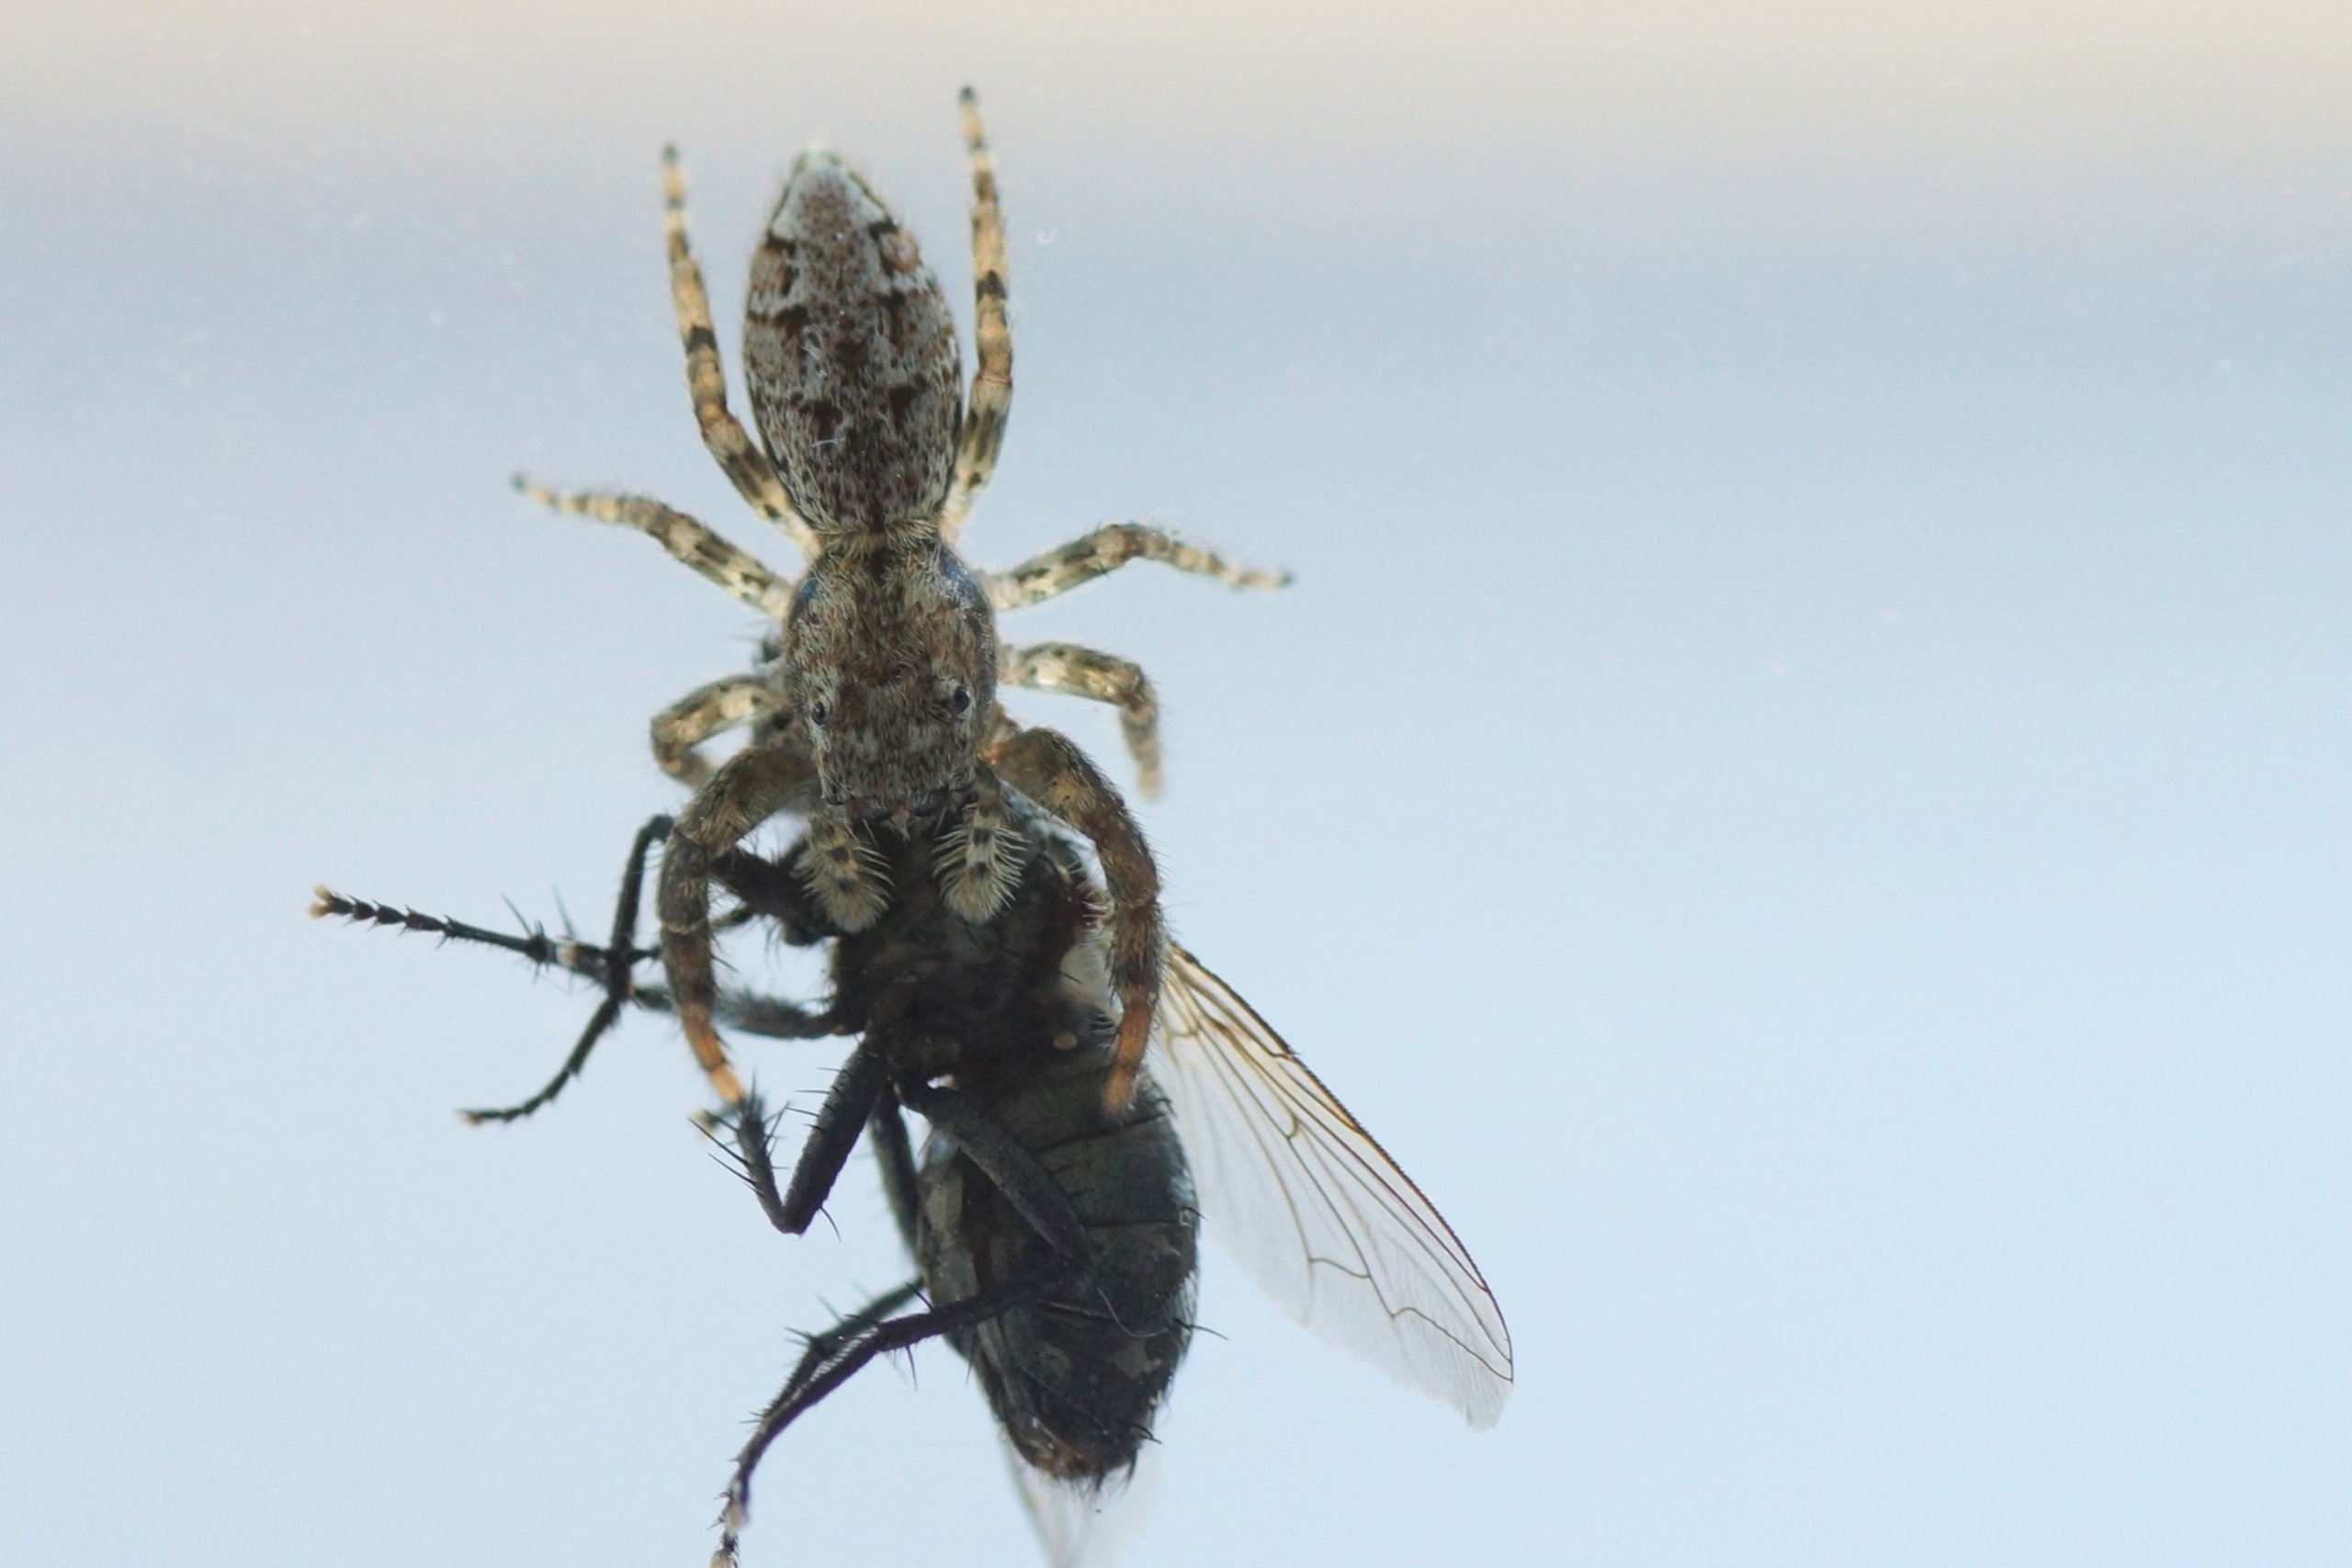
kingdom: Animalia
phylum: Arthropoda
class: Arachnida
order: Araneae
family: Salticidae
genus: Marpissa
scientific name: Marpissa muscosa
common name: Stor springedderkop
